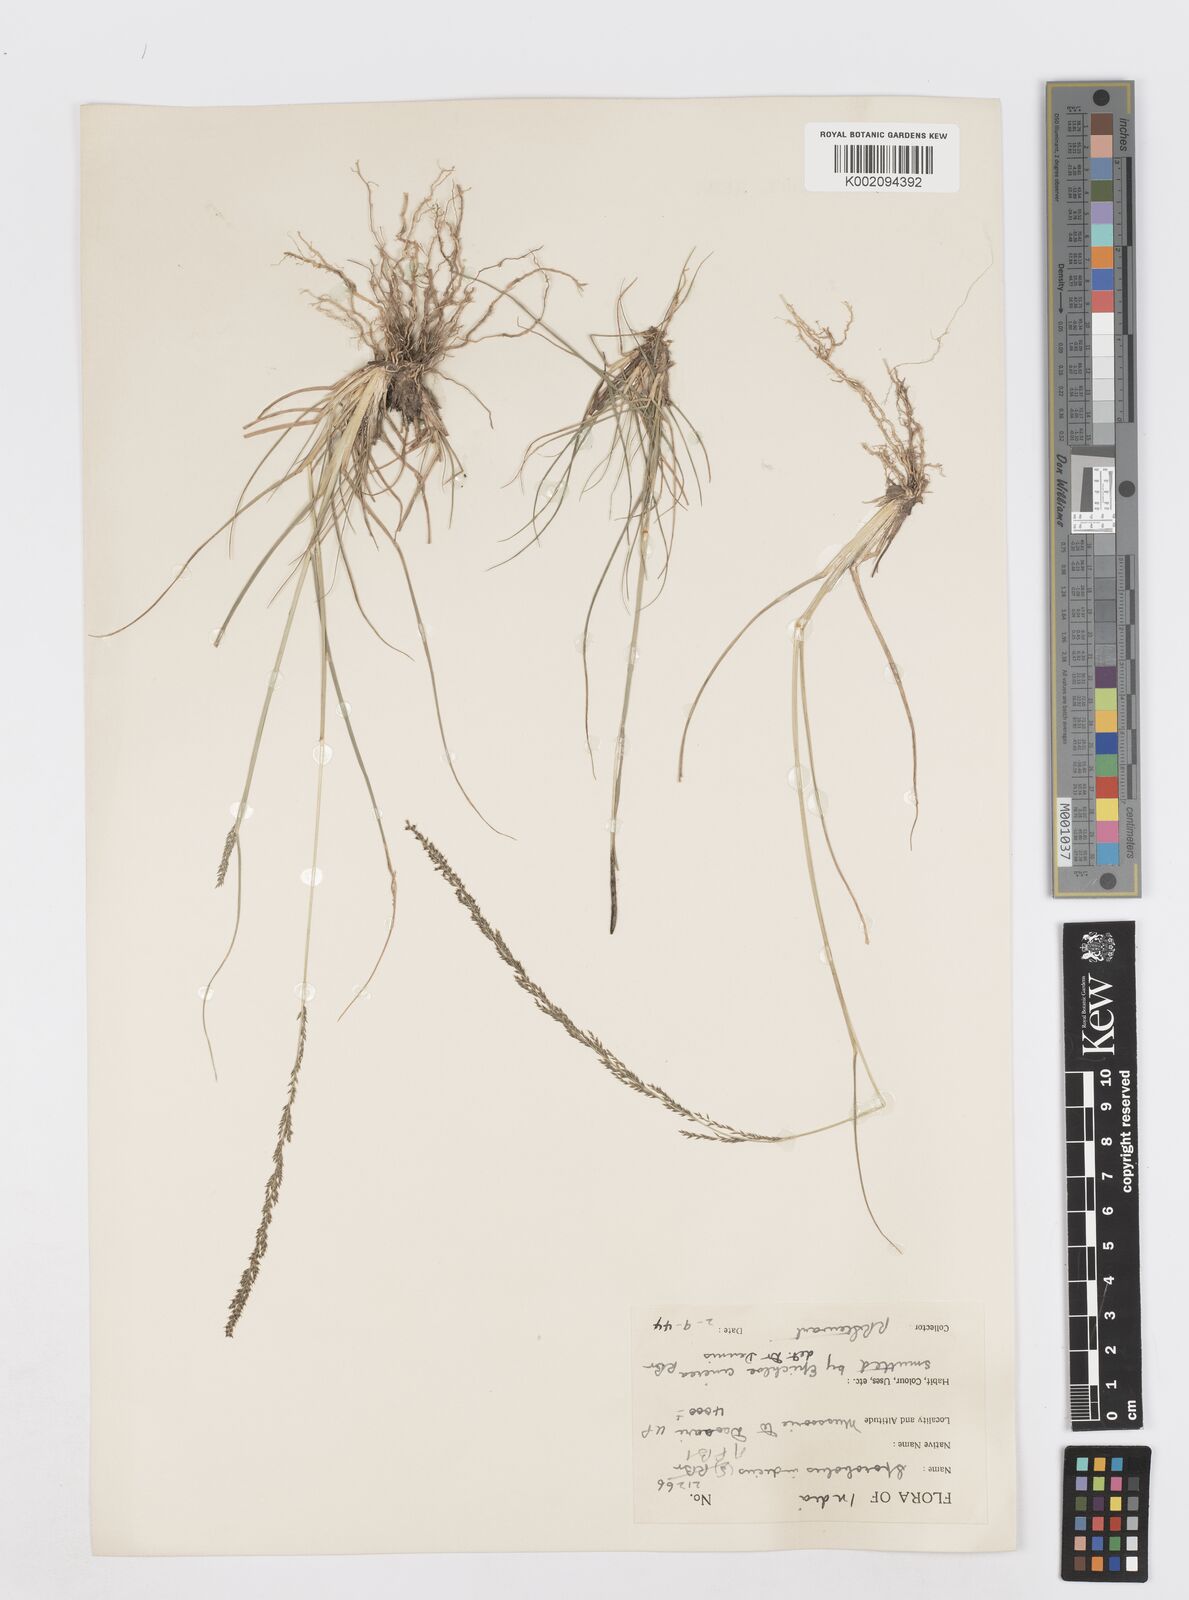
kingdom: Plantae
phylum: Tracheophyta
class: Liliopsida
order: Poales
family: Poaceae
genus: Sporobolus
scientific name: Sporobolus fertilis
